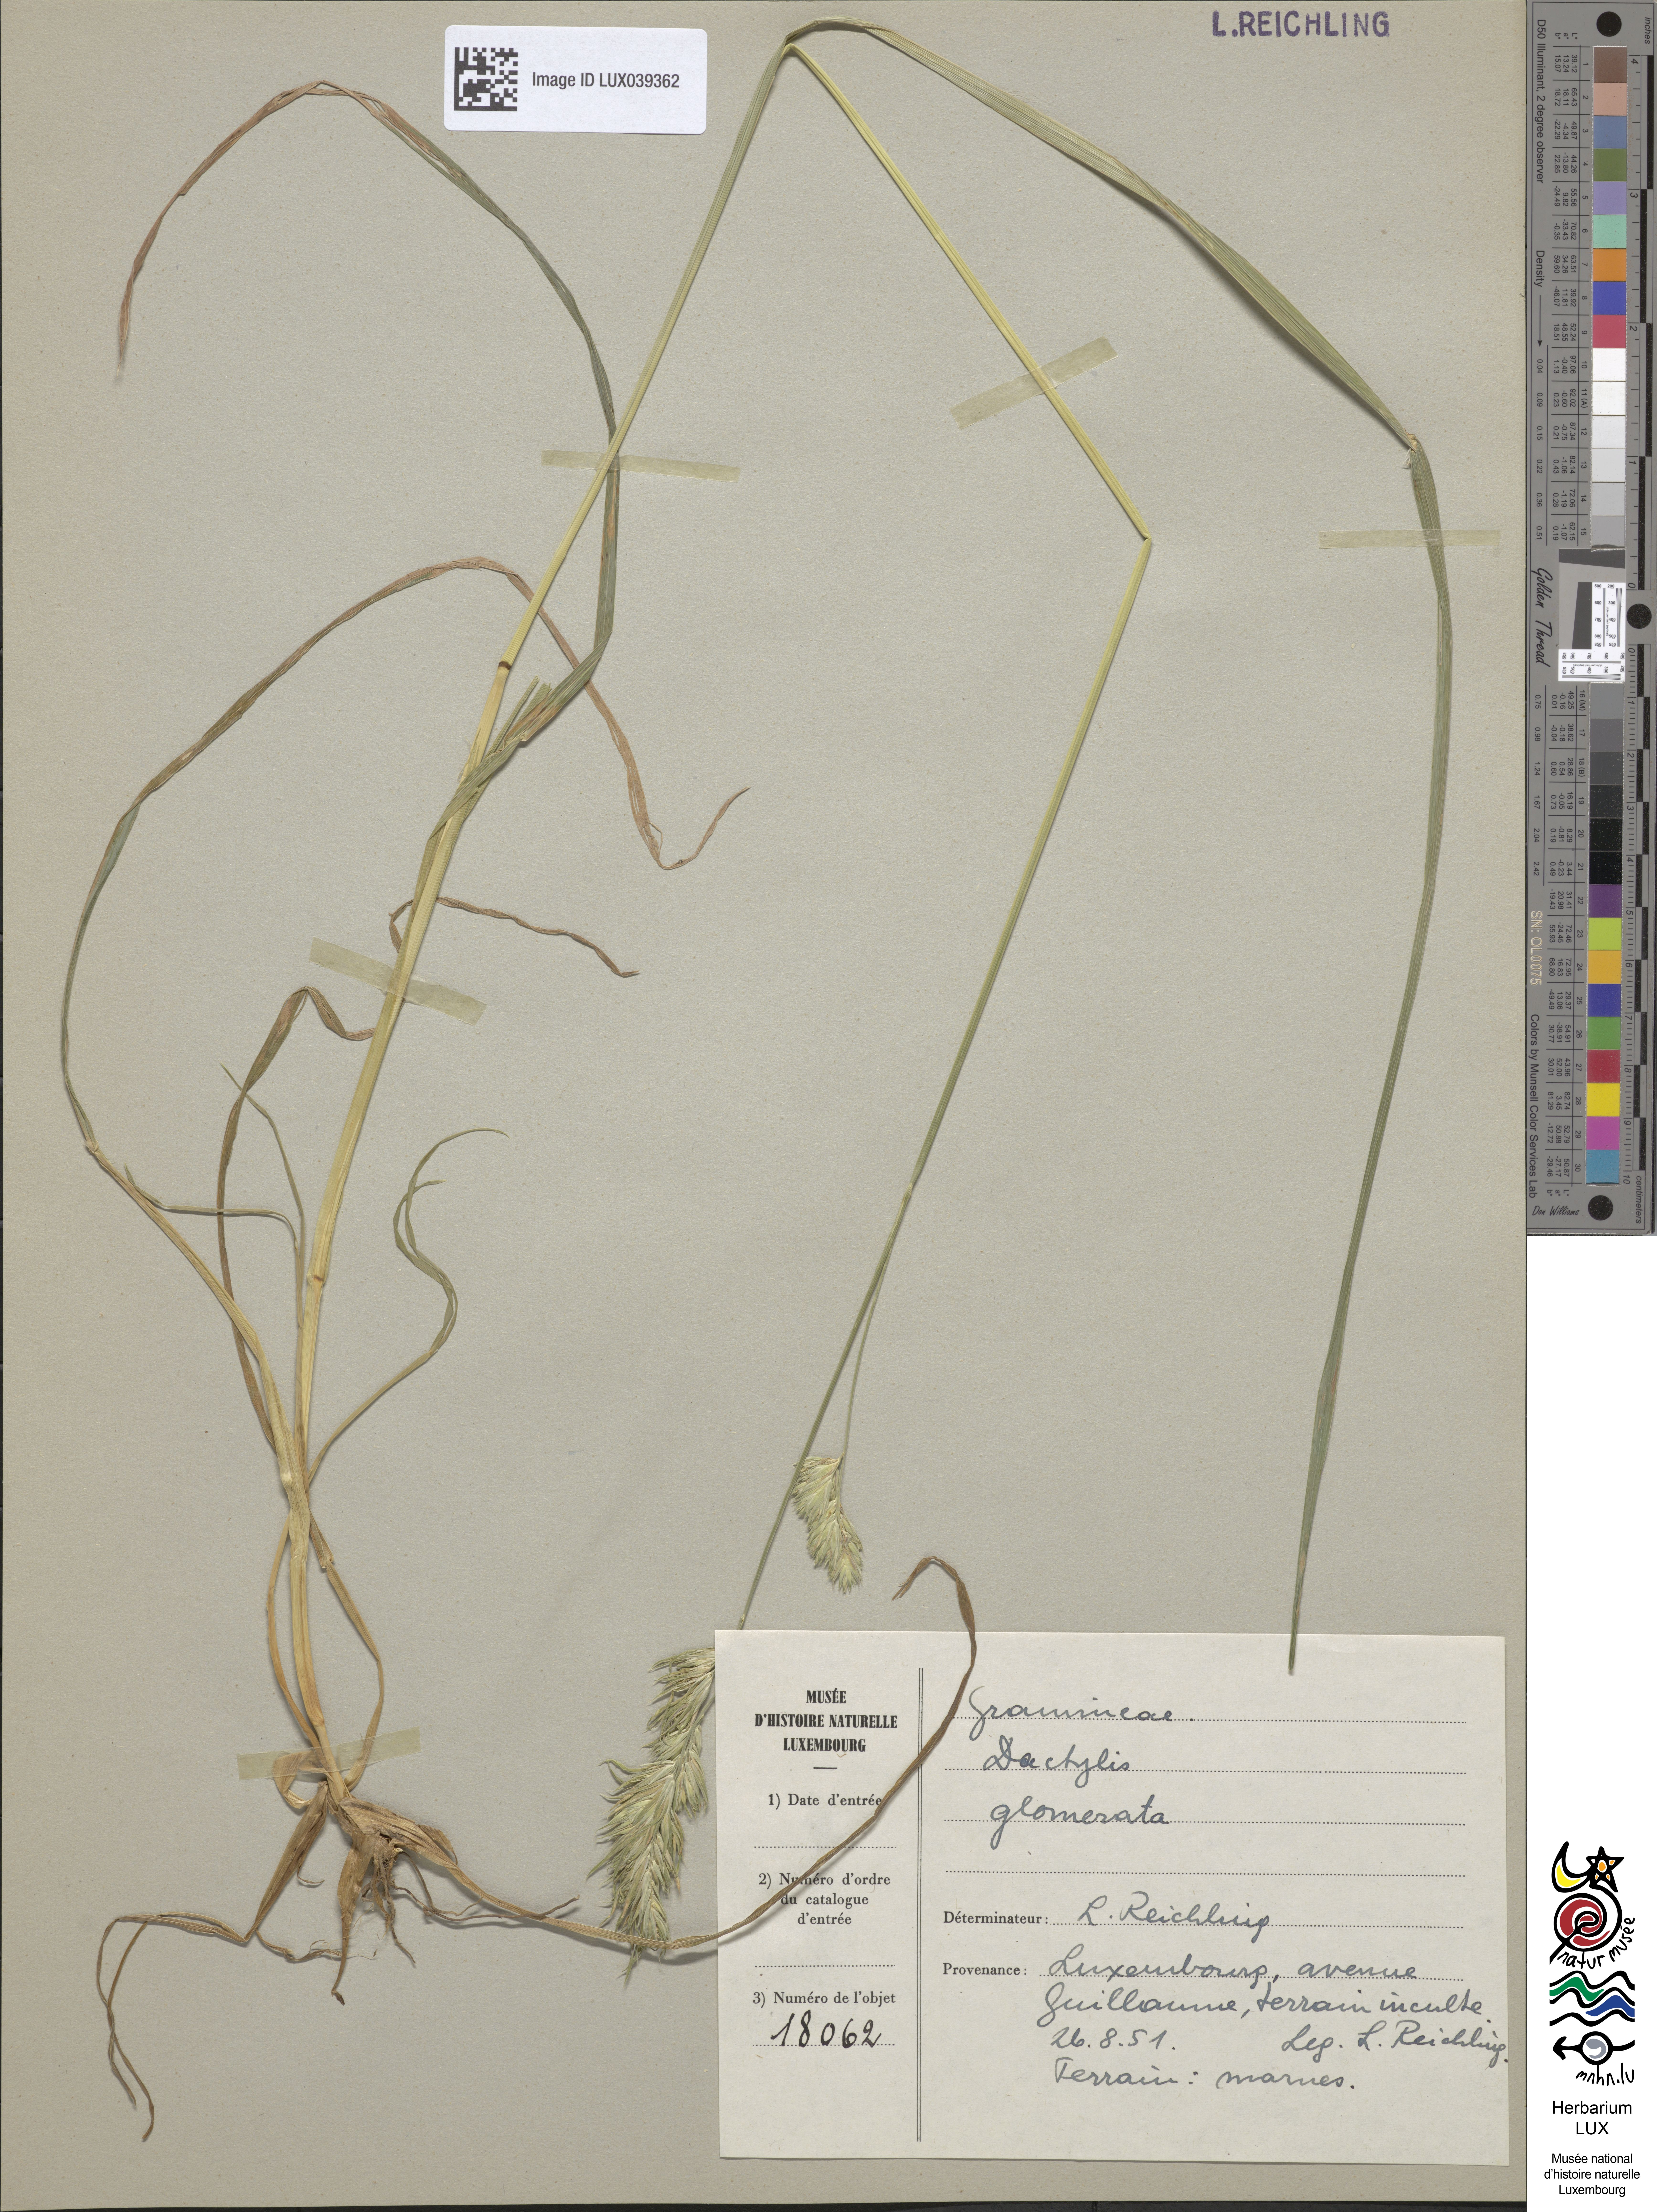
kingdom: Plantae
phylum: Tracheophyta
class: Liliopsida
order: Poales
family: Poaceae
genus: Dactylis
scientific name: Dactylis glomerata
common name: Orchardgrass
